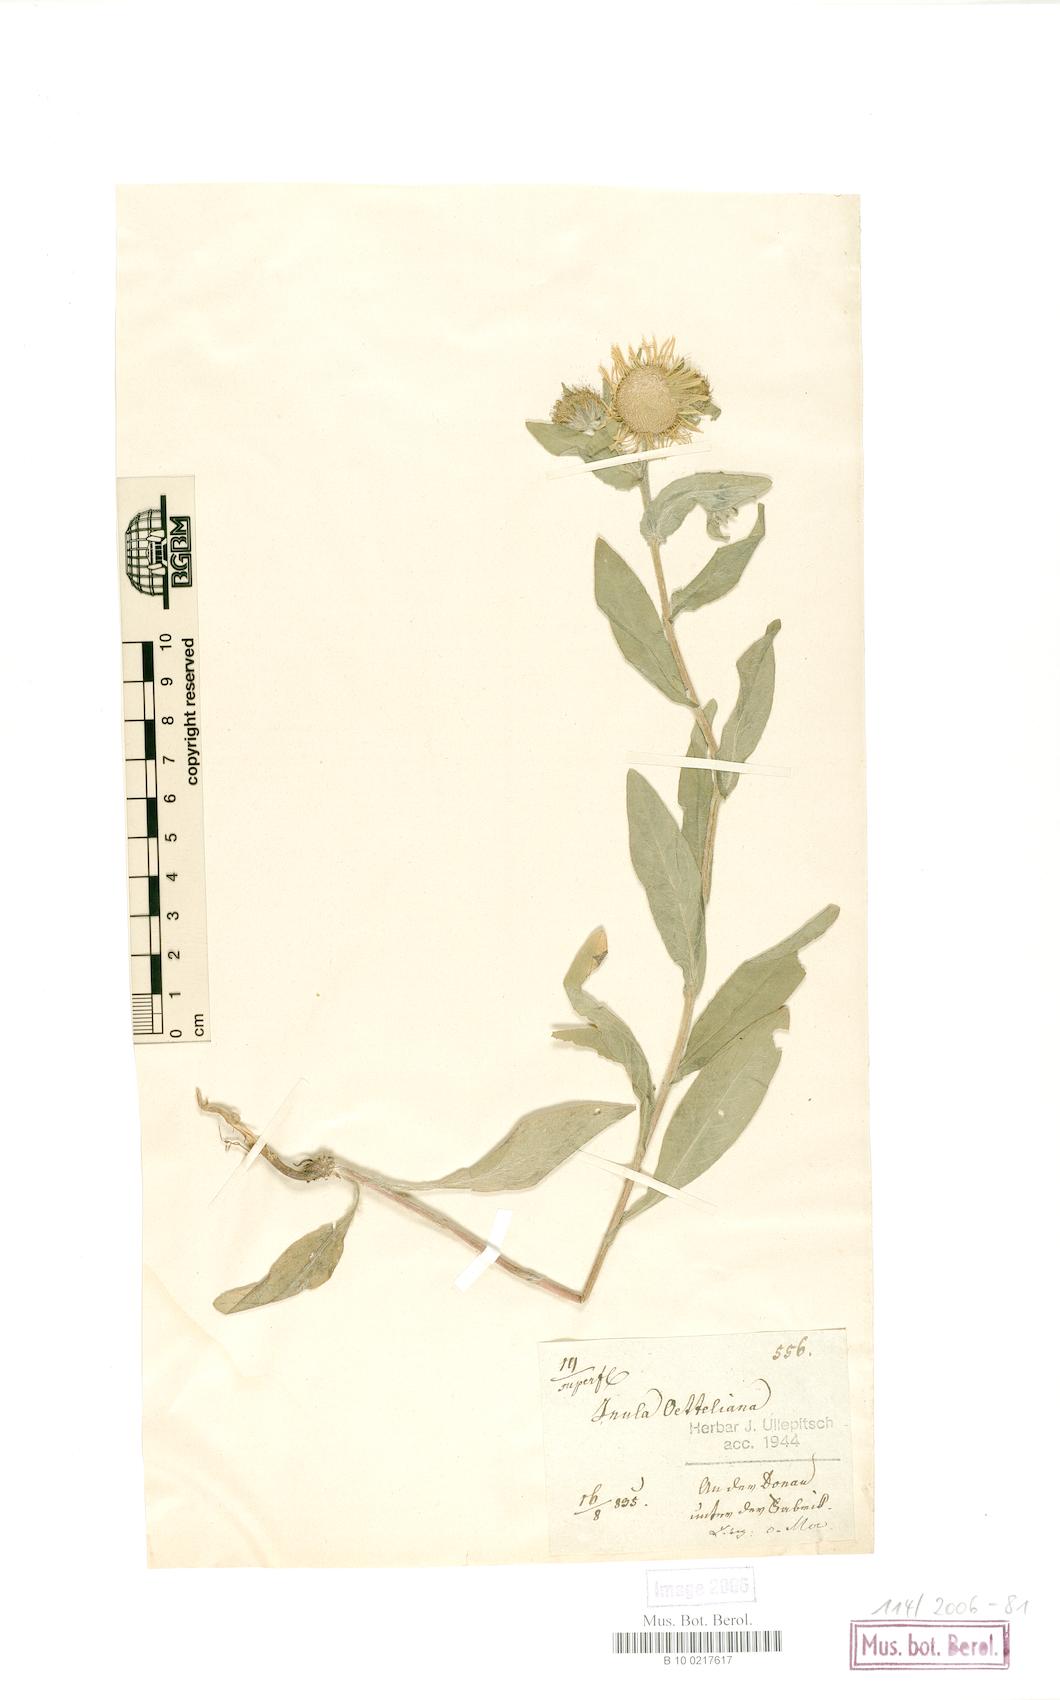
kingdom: Plantae
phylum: Tracheophyta
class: Magnoliopsida
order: Asterales
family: Asteraceae
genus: Pentanema
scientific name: Pentanema britannicum
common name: British elecampane
